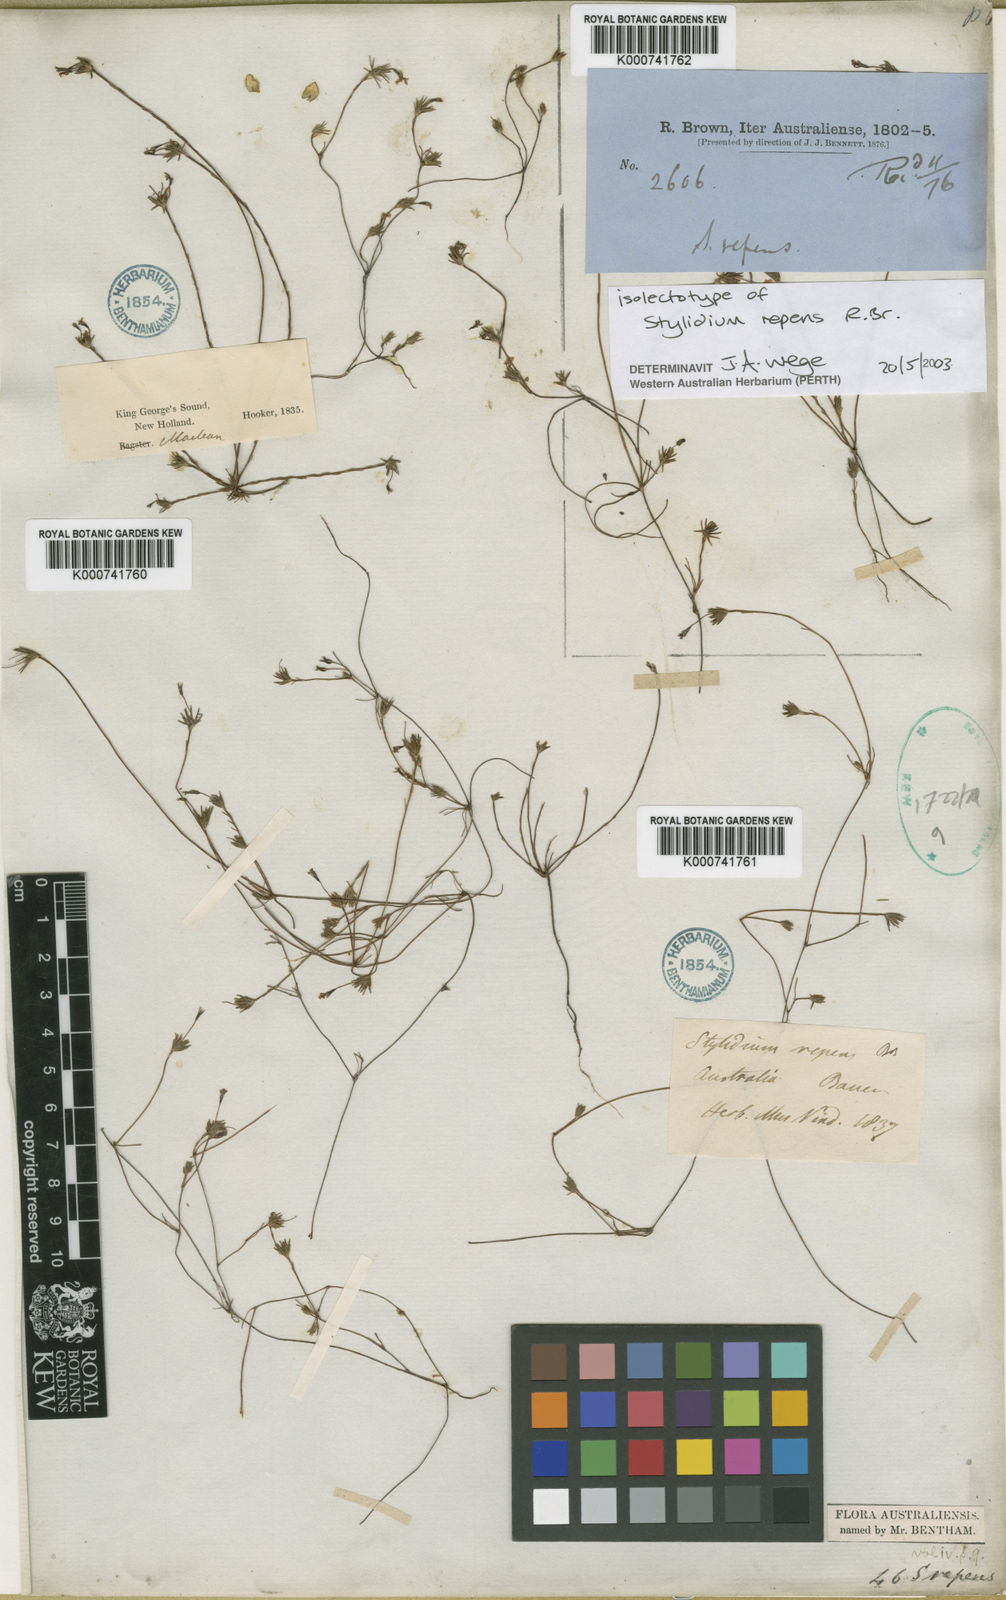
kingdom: Plantae
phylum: Tracheophyta
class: Magnoliopsida
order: Asterales
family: Stylidiaceae
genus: Stylidium
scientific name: Stylidium repens
